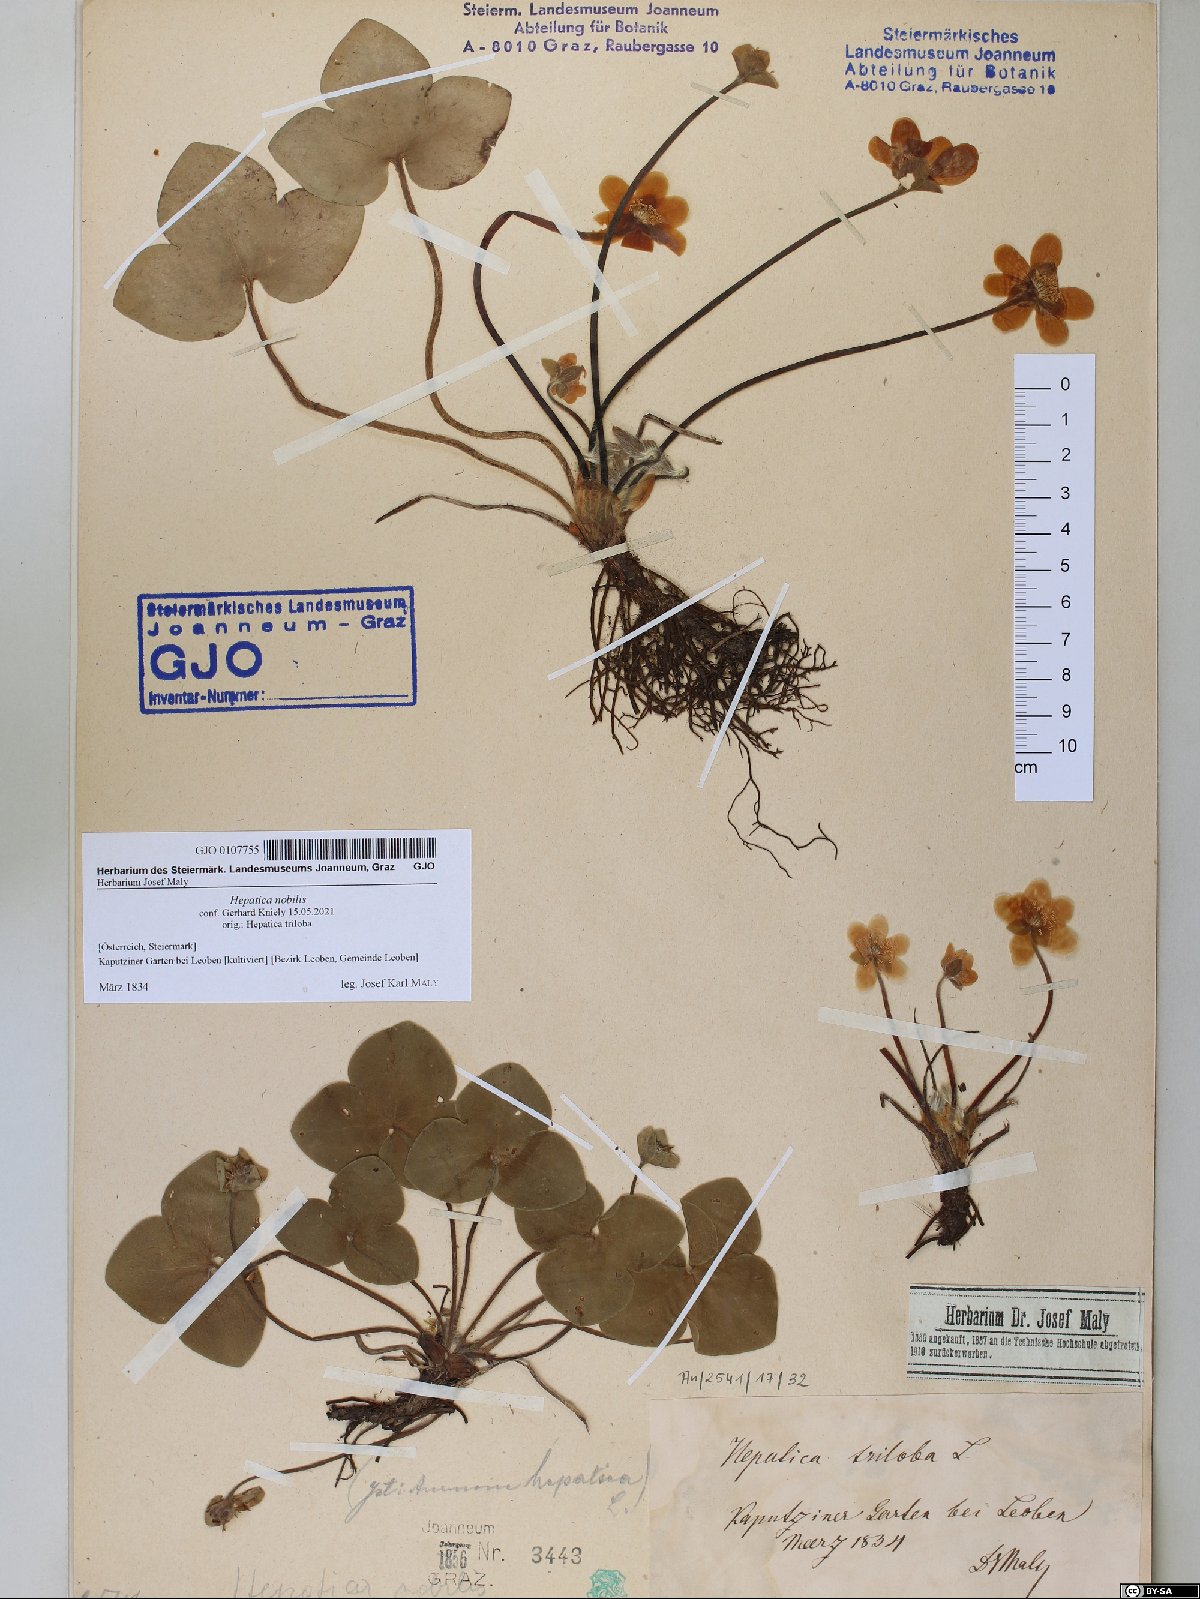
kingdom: Plantae
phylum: Tracheophyta
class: Magnoliopsida
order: Ranunculales
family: Ranunculaceae
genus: Hepatica
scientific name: Hepatica nobilis
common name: Liverleaf
